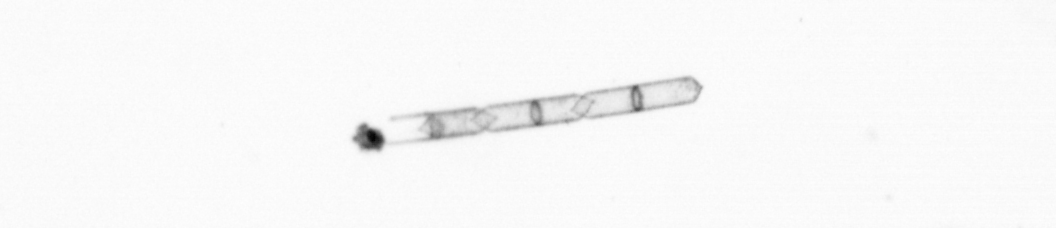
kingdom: Chromista
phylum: Ochrophyta
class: Bacillariophyceae
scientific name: Bacillariophyceae
